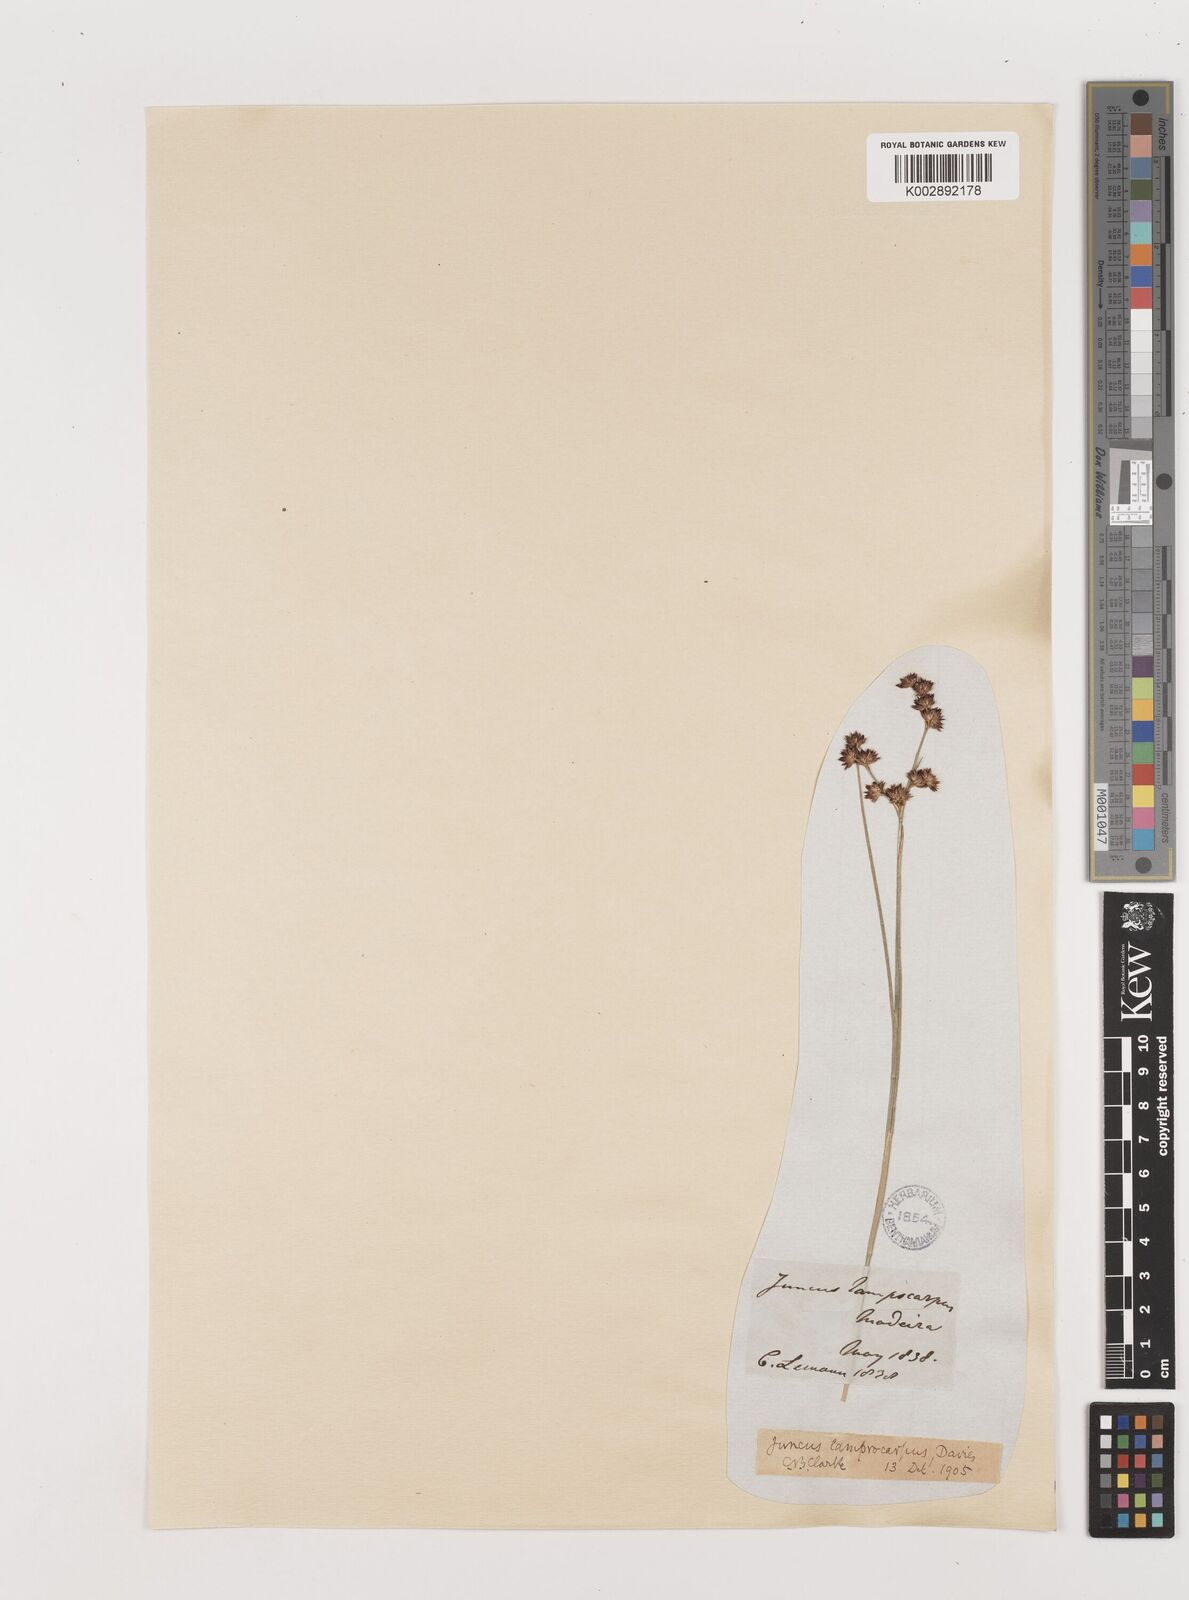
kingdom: Plantae
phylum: Tracheophyta
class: Liliopsida
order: Poales
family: Juncaceae
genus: Juncus
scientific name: Juncus articulatus
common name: Jointed rush
